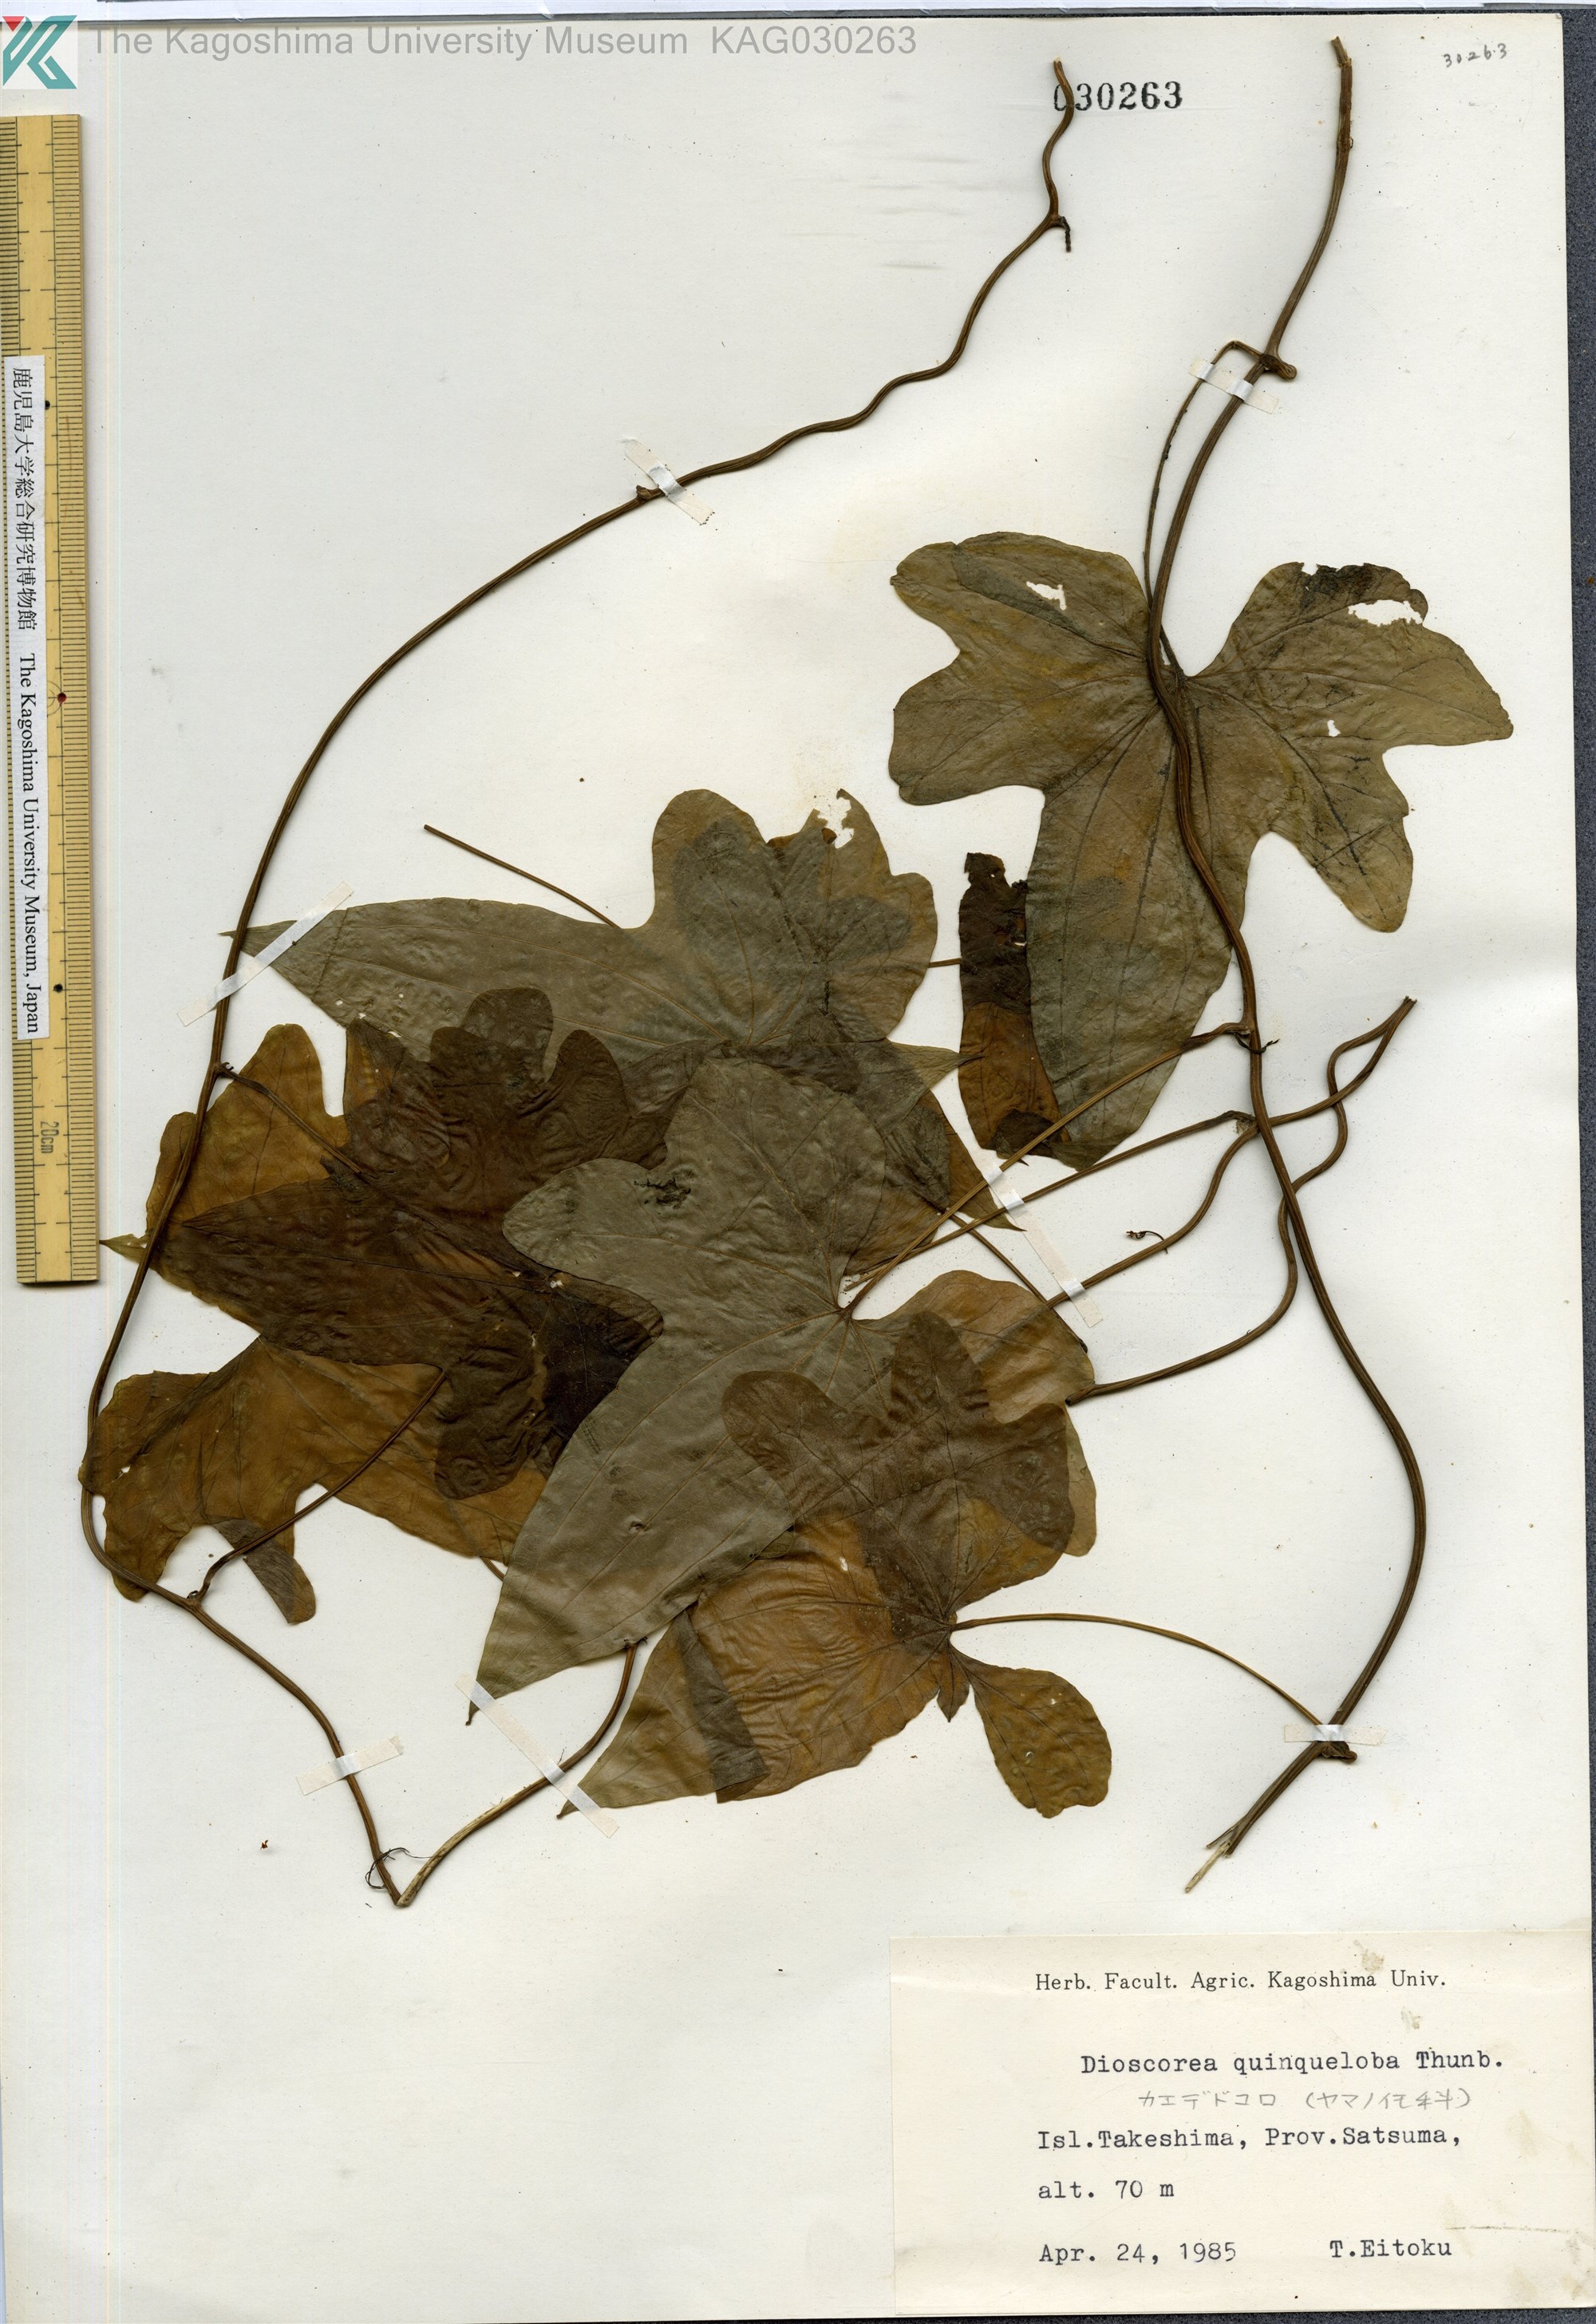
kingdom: Plantae
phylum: Tracheophyta
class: Liliopsida
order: Dioscoreales
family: Dioscoreaceae
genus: Dioscorea
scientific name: Dioscorea quinquelobata
